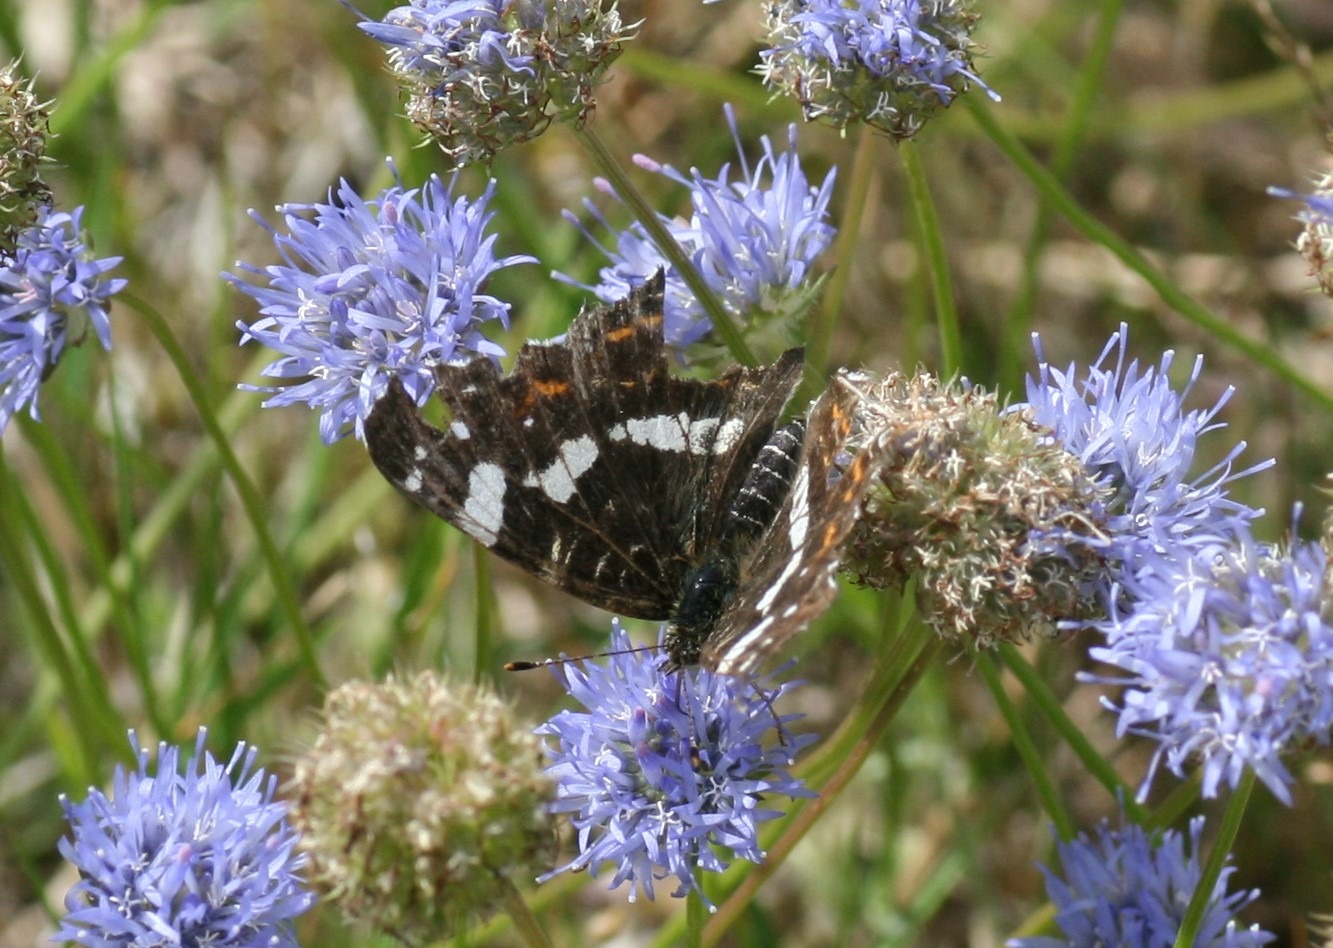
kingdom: Animalia
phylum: Arthropoda
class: Insecta
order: Lepidoptera
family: Nymphalidae
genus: Araschnia
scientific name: Araschnia levana
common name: Nældesommerfugl
